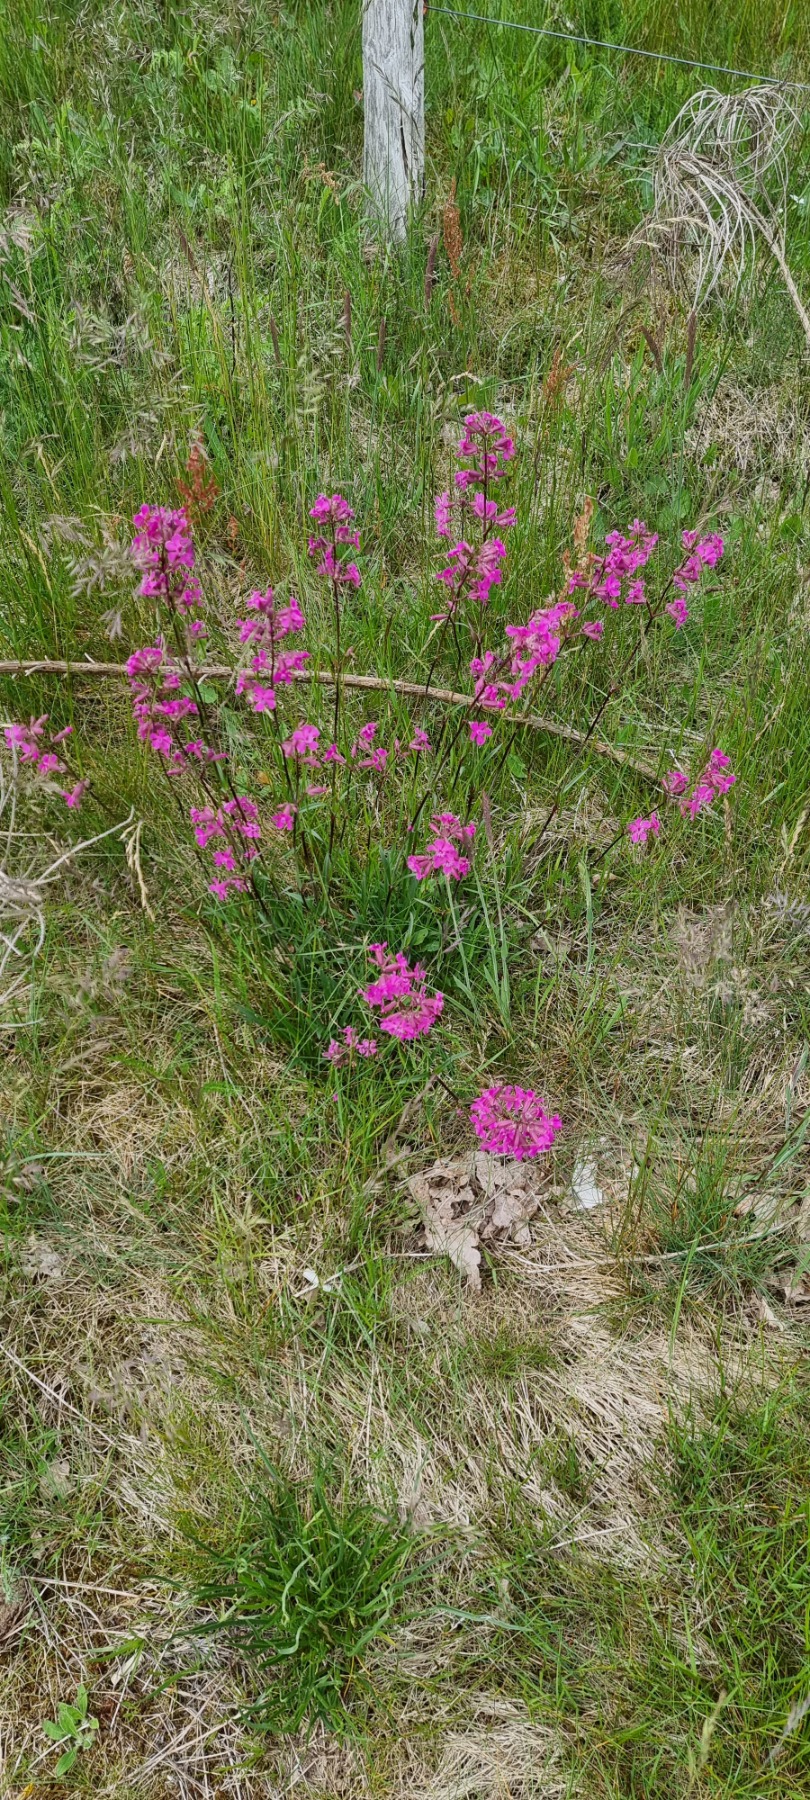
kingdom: Plantae
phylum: Tracheophyta
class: Magnoliopsida
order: Caryophyllales
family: Caryophyllaceae
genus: Viscaria
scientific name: Viscaria vulgaris
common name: Tjærenellike
